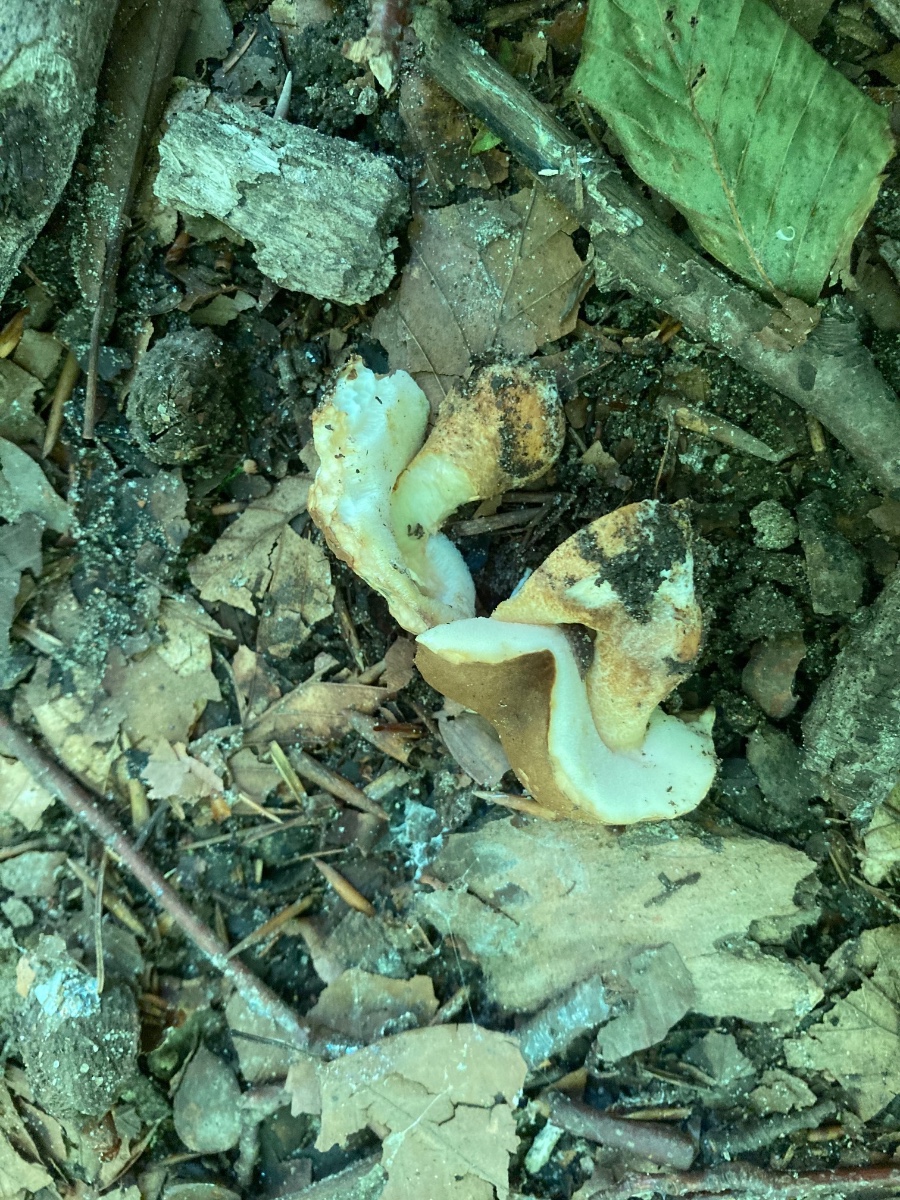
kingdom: Fungi
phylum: Basidiomycota
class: Agaricomycetes
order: Boletales
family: Gyroporaceae
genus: Gyroporus
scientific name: Gyroporus castaneus
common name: kastanie-kammerrørhat
